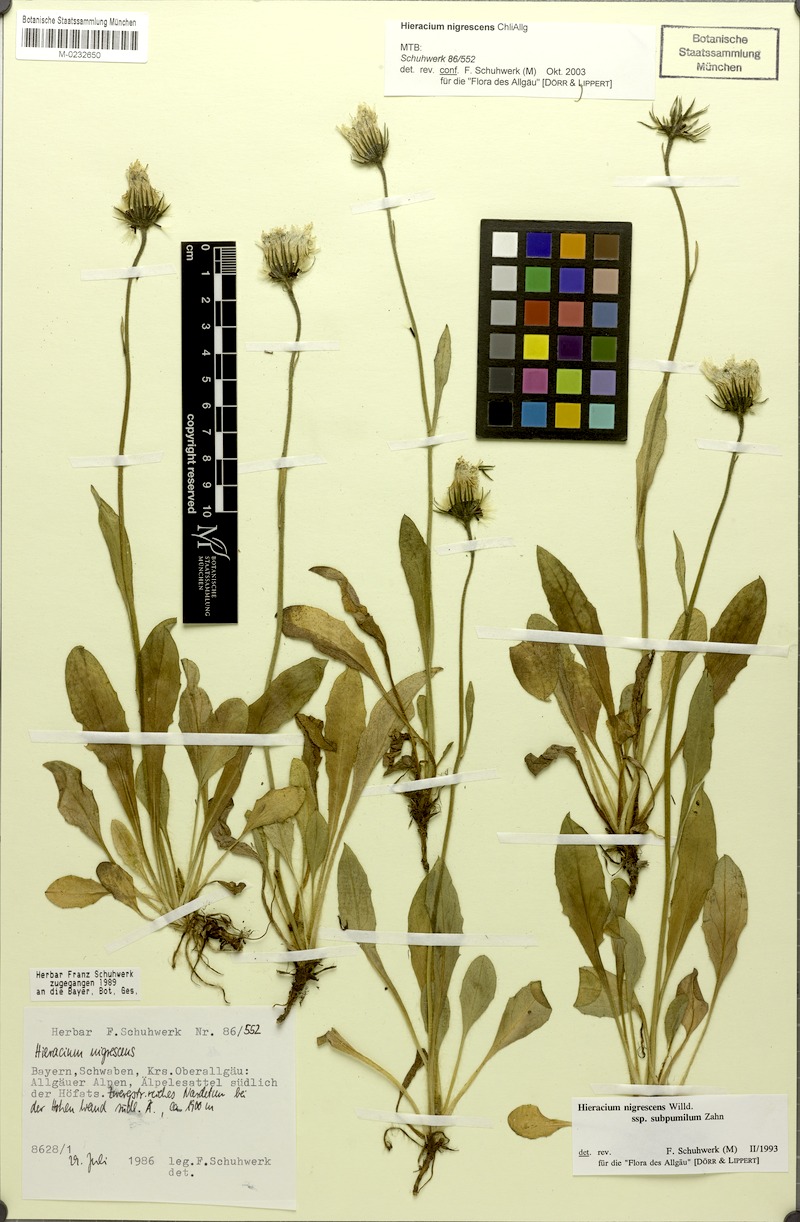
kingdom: Plantae
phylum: Tracheophyta
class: Magnoliopsida
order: Asterales
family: Asteraceae
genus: Hieracium
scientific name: Hieracium nigrescens
